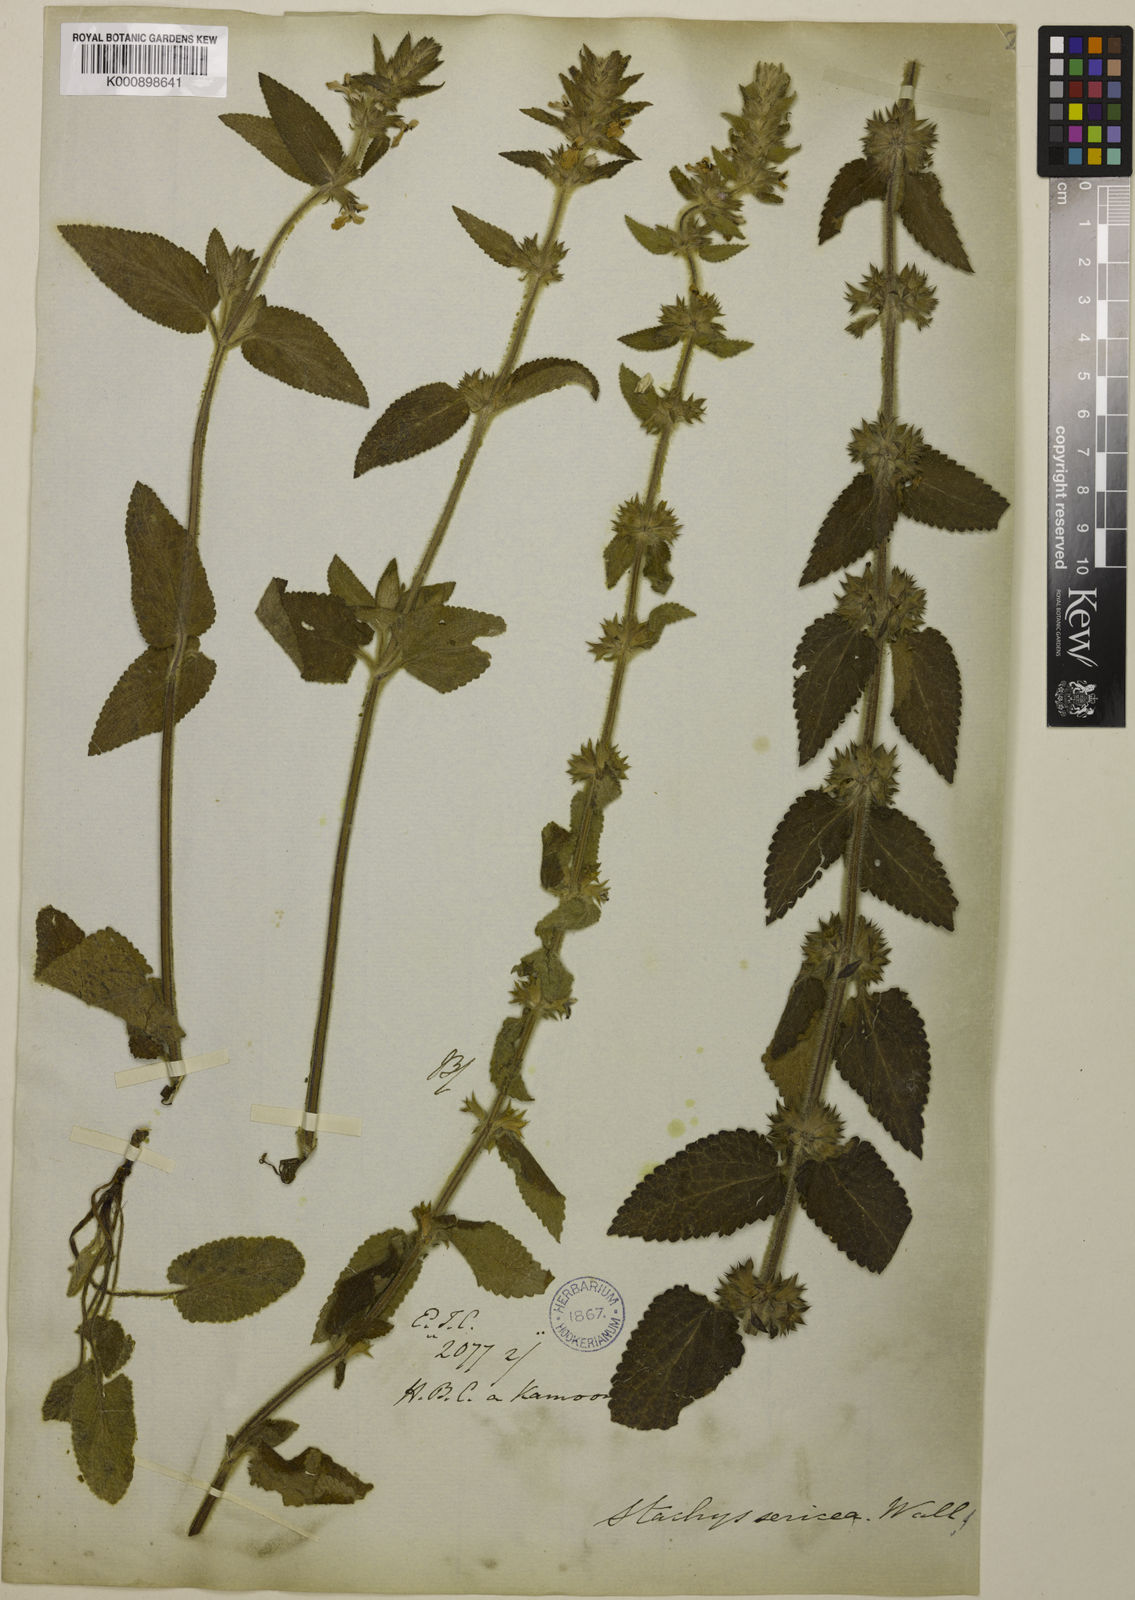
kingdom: Plantae
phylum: Tracheophyta
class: Magnoliopsida
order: Lamiales
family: Lamiaceae
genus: Stachys
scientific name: Stachys
